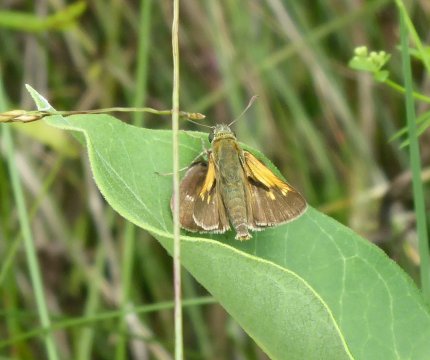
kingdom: Animalia
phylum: Arthropoda
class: Insecta
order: Lepidoptera
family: Hesperiidae
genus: Polites
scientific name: Polites
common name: Crossline Skipper
